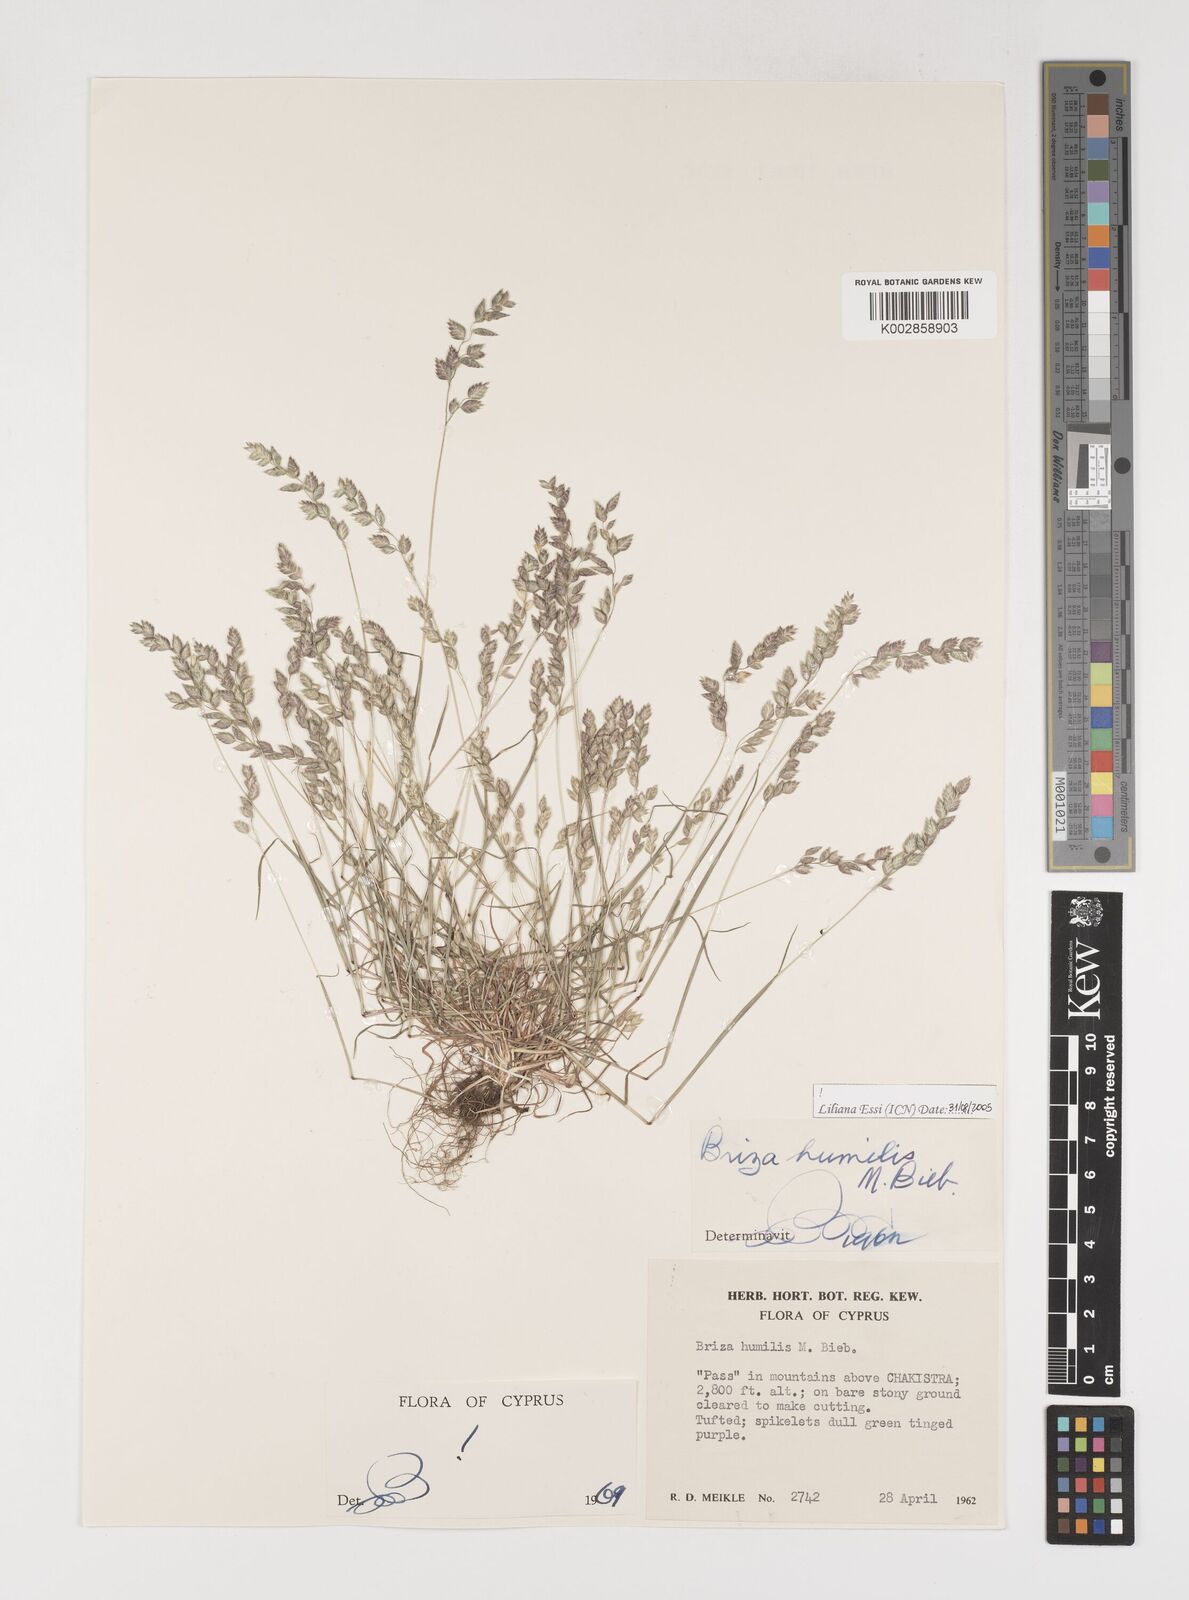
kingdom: Plantae
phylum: Tracheophyta
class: Liliopsida
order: Poales
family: Poaceae
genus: Briza
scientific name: Briza humilis
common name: Spiked quaking grass
